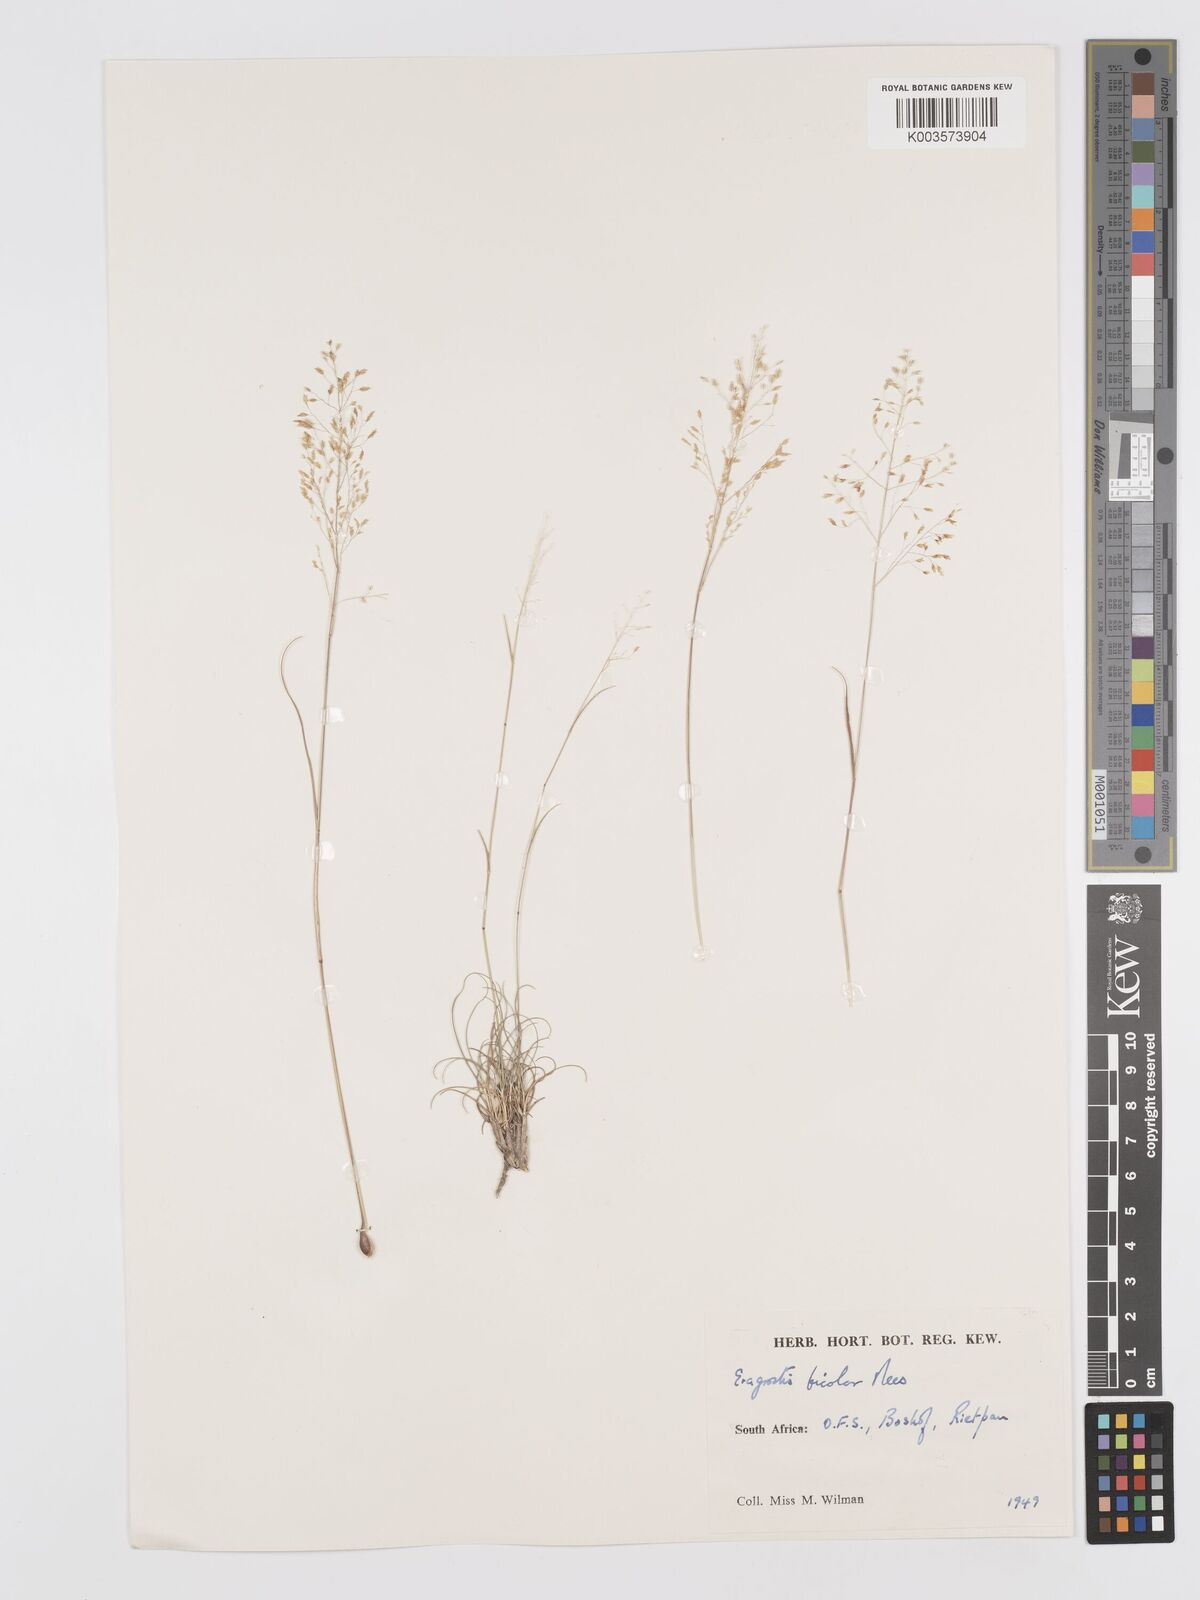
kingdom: Plantae
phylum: Tracheophyta
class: Liliopsida
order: Poales
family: Poaceae
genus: Eragrostis
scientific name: Eragrostis
